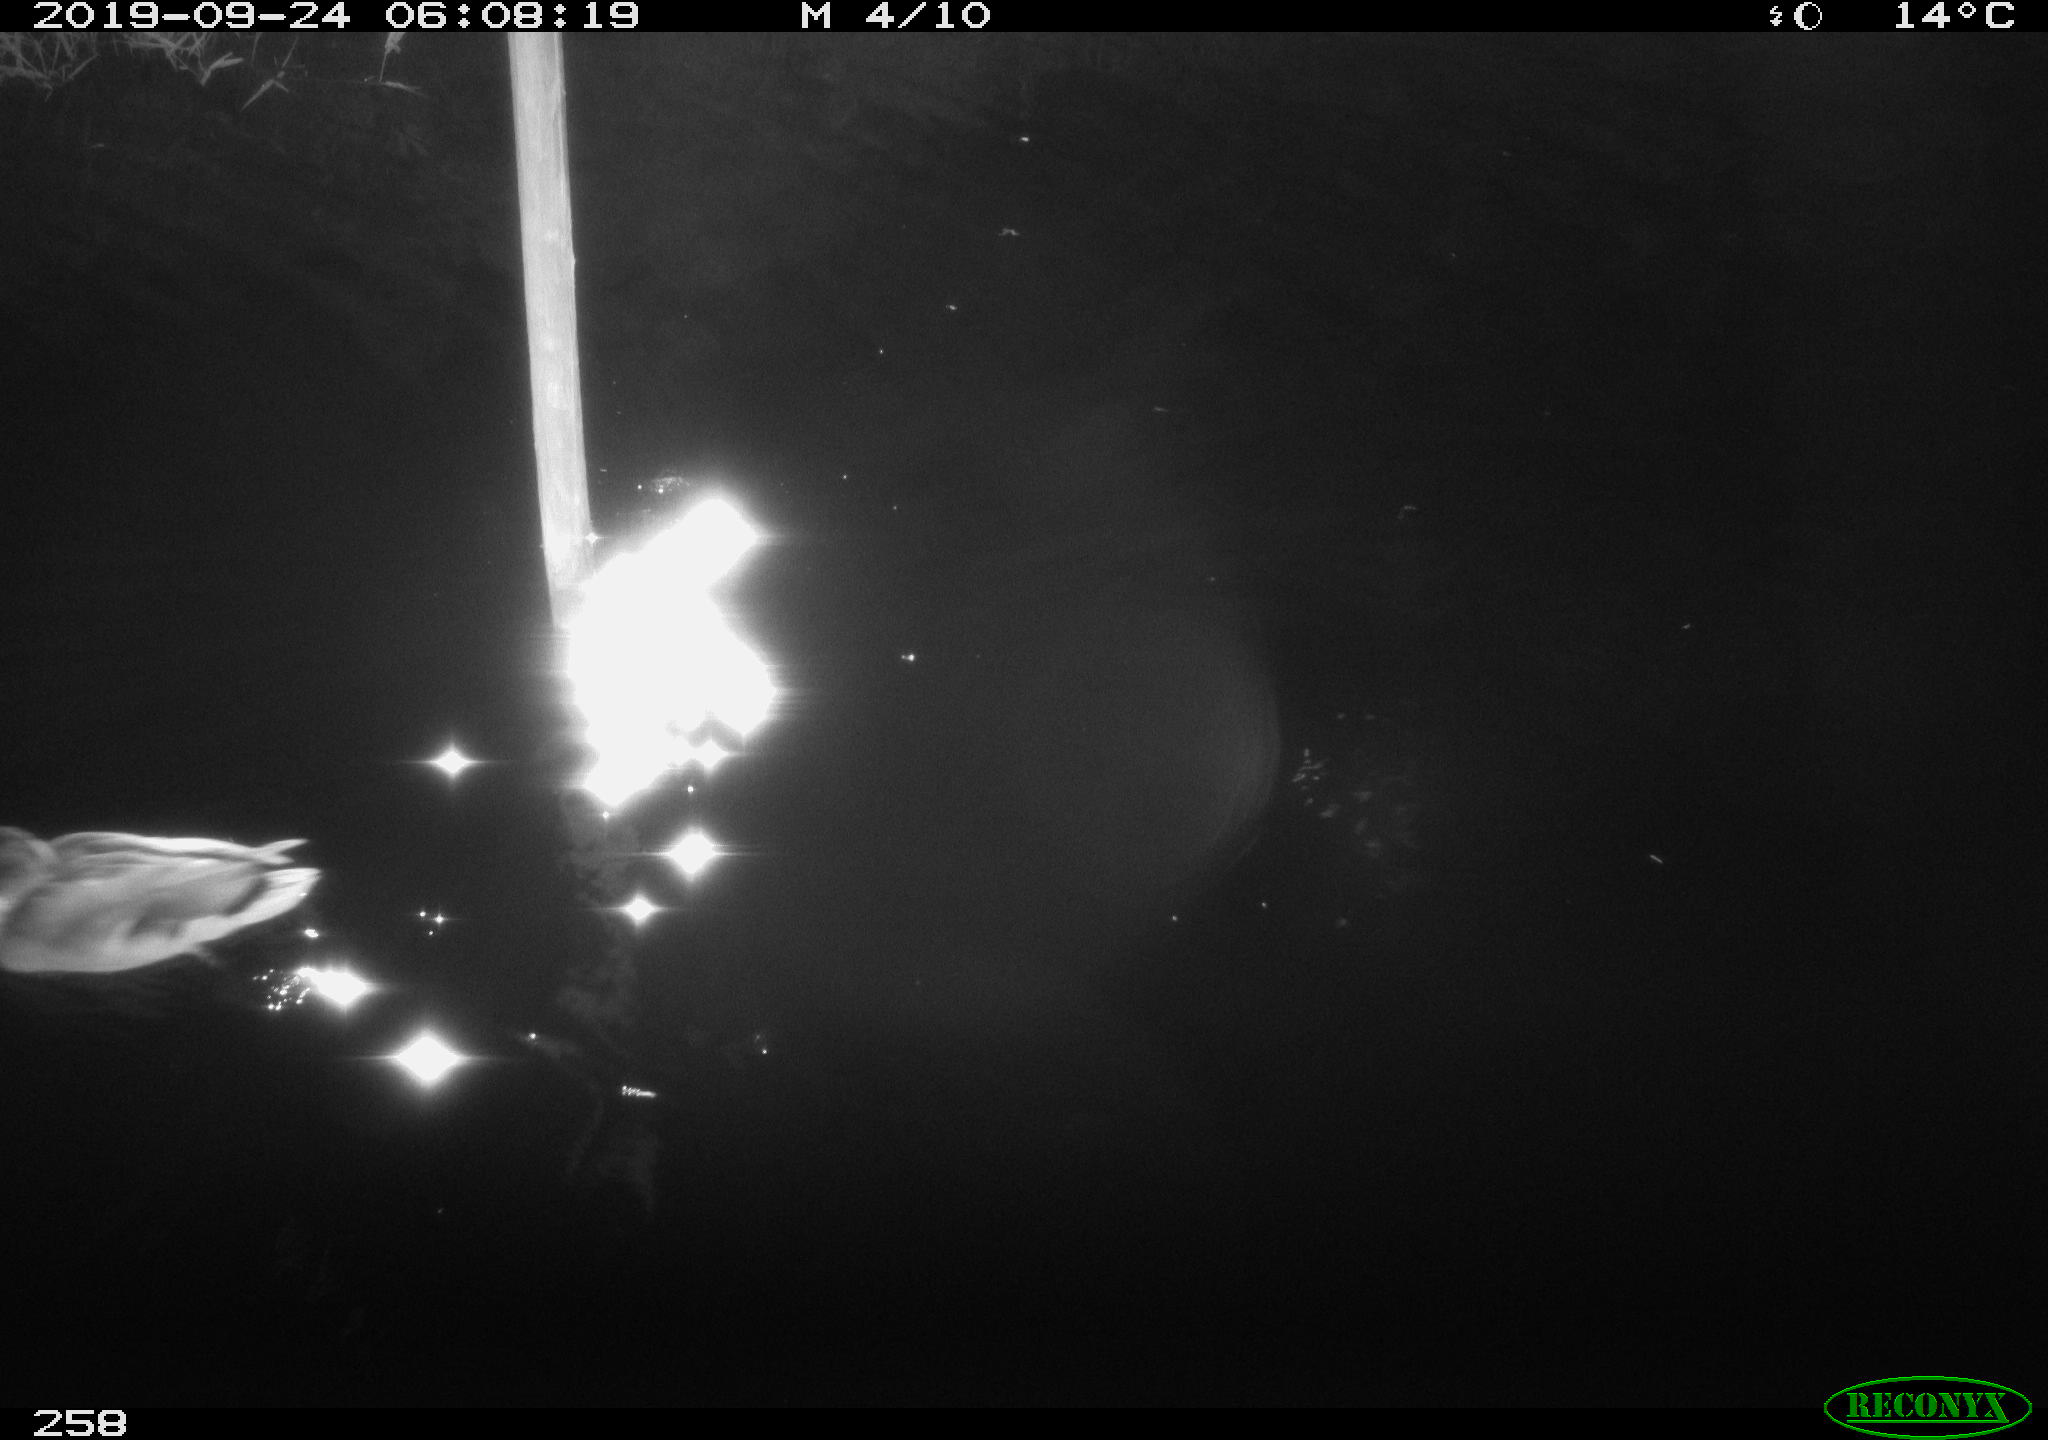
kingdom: Animalia
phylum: Chordata
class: Aves
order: Anseriformes
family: Anatidae
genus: Anas
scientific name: Anas platyrhynchos
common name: Mallard
